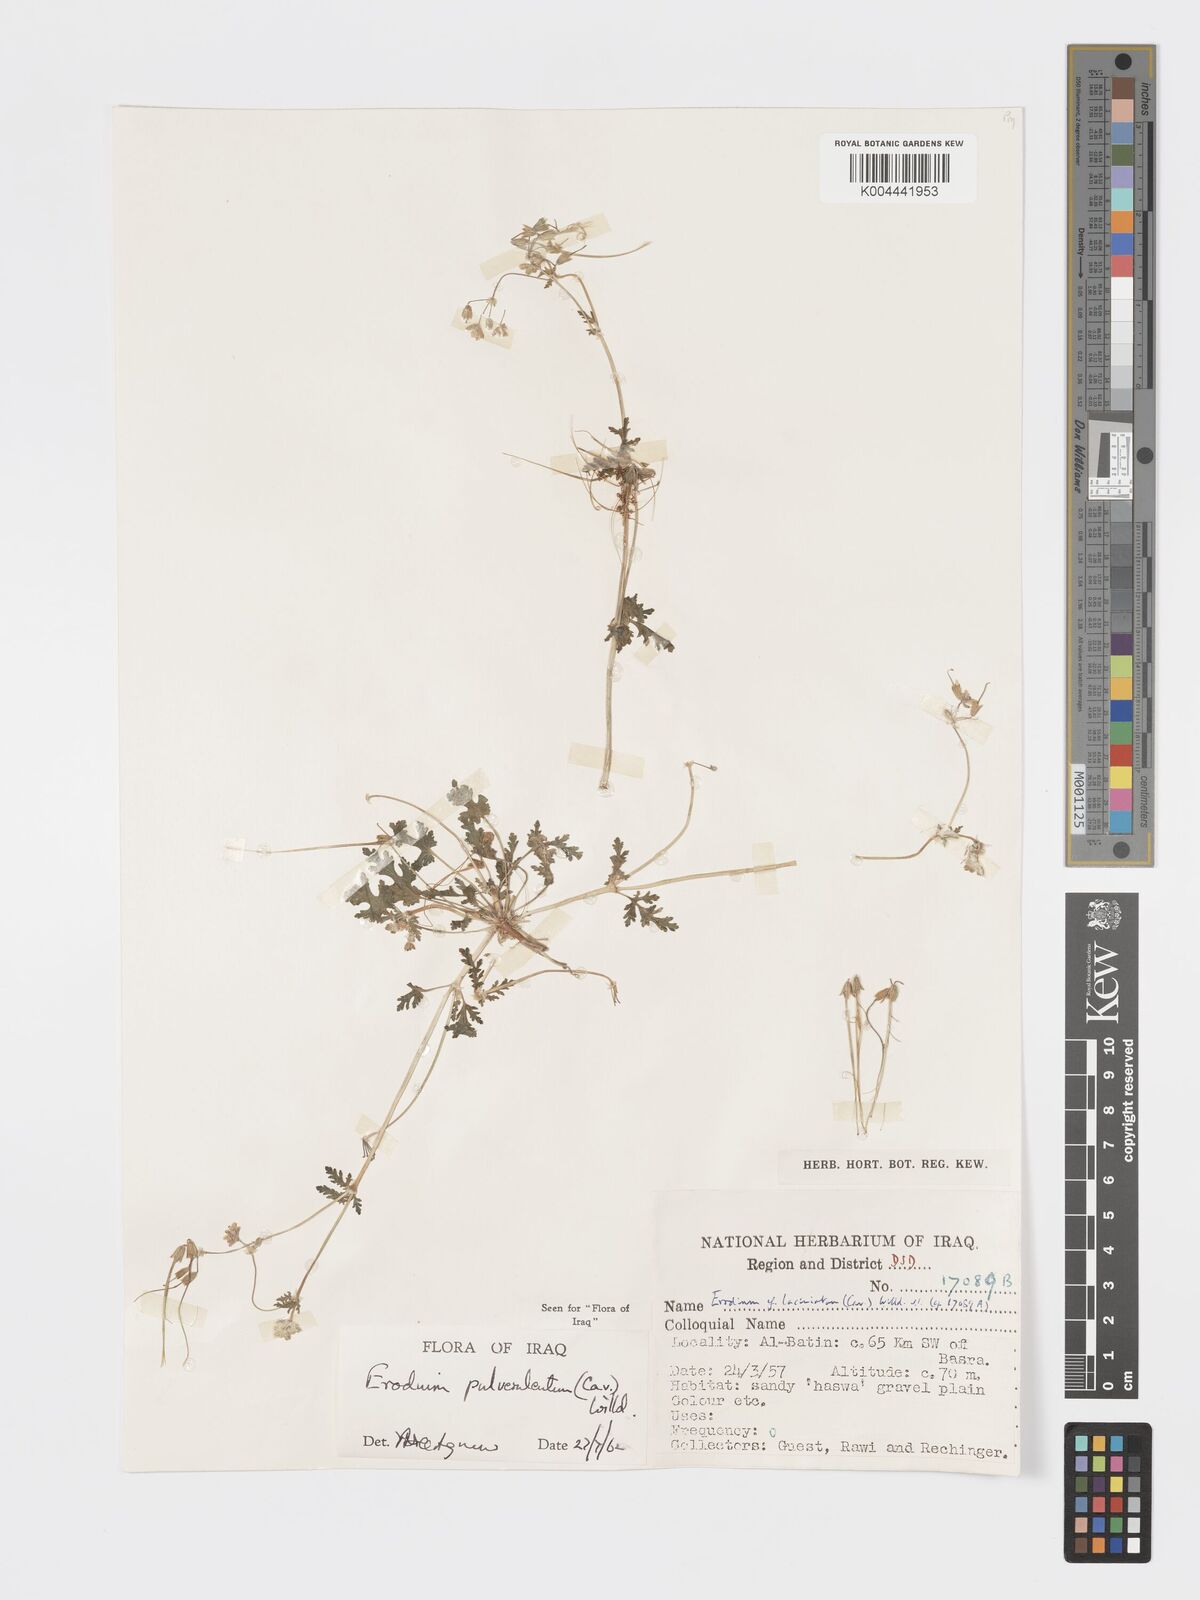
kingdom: Plantae
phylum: Tracheophyta
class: Magnoliopsida
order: Geraniales
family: Geraniaceae
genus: Erodium
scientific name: Erodium laciniatum
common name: Cutleaf stork's bill
